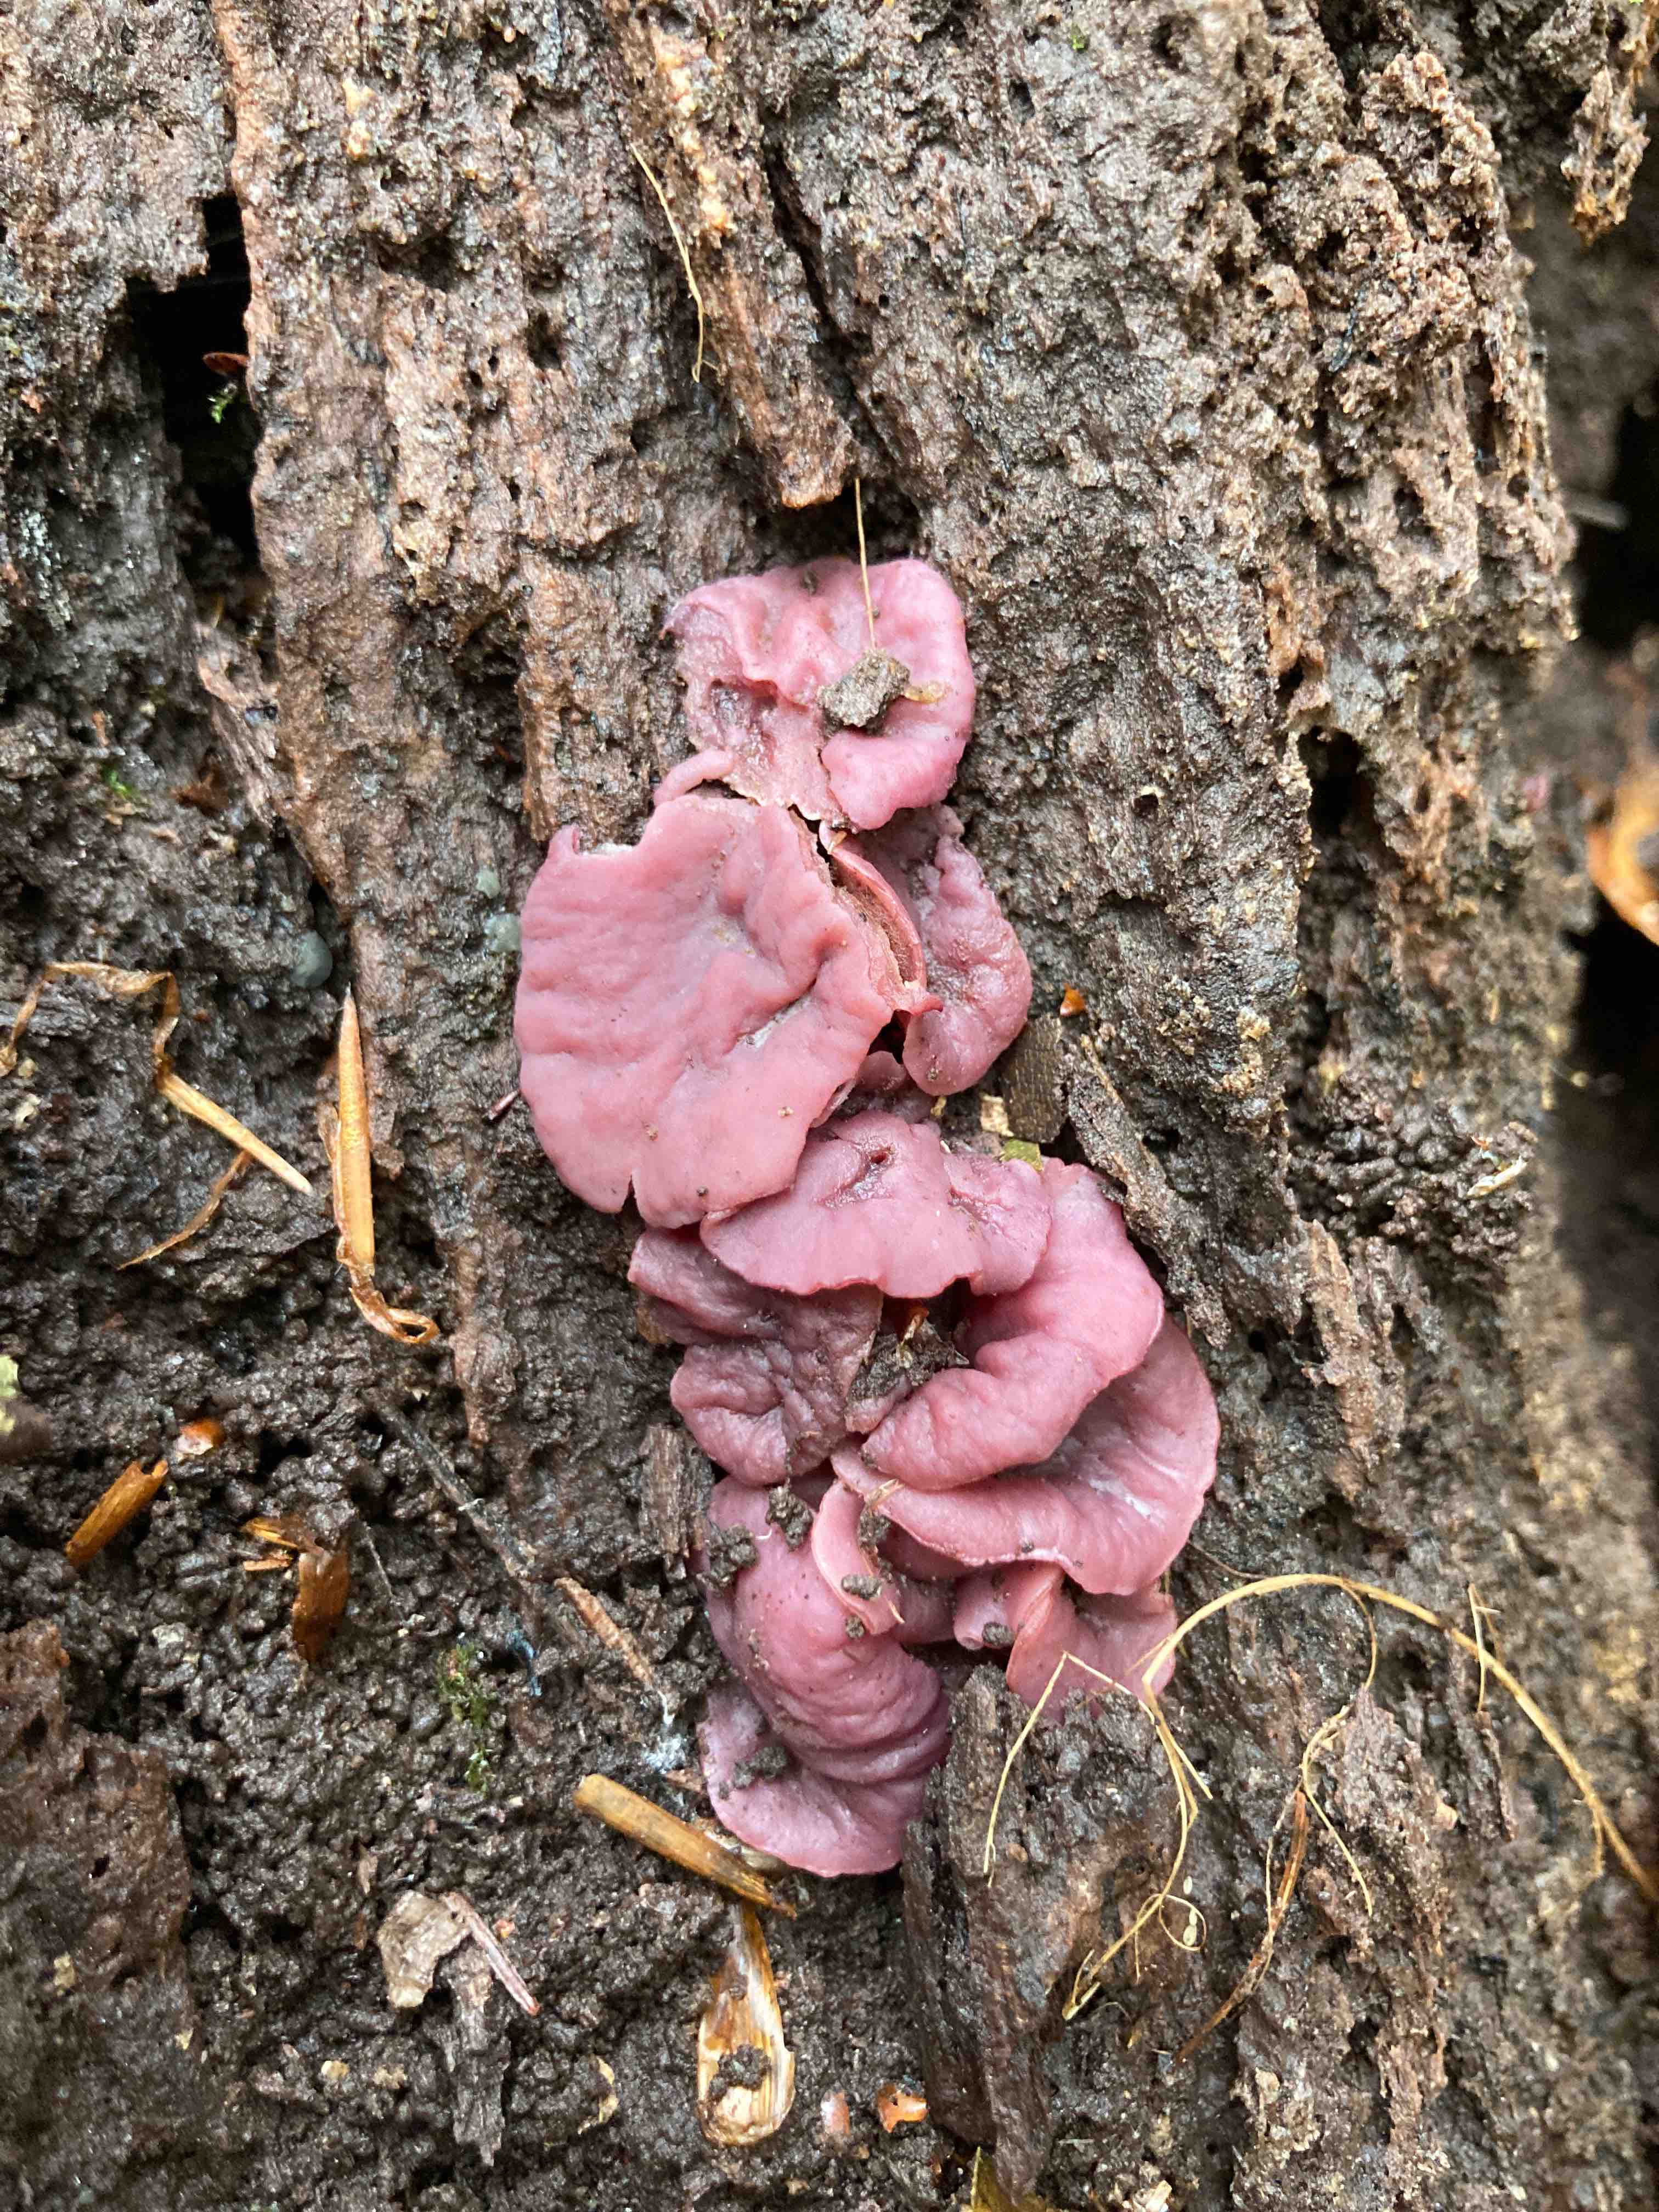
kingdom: Fungi
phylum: Ascomycota
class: Leotiomycetes
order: Helotiales
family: Gelatinodiscaceae
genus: Ascocoryne
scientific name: Ascocoryne cylichnium
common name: stor sejskive
